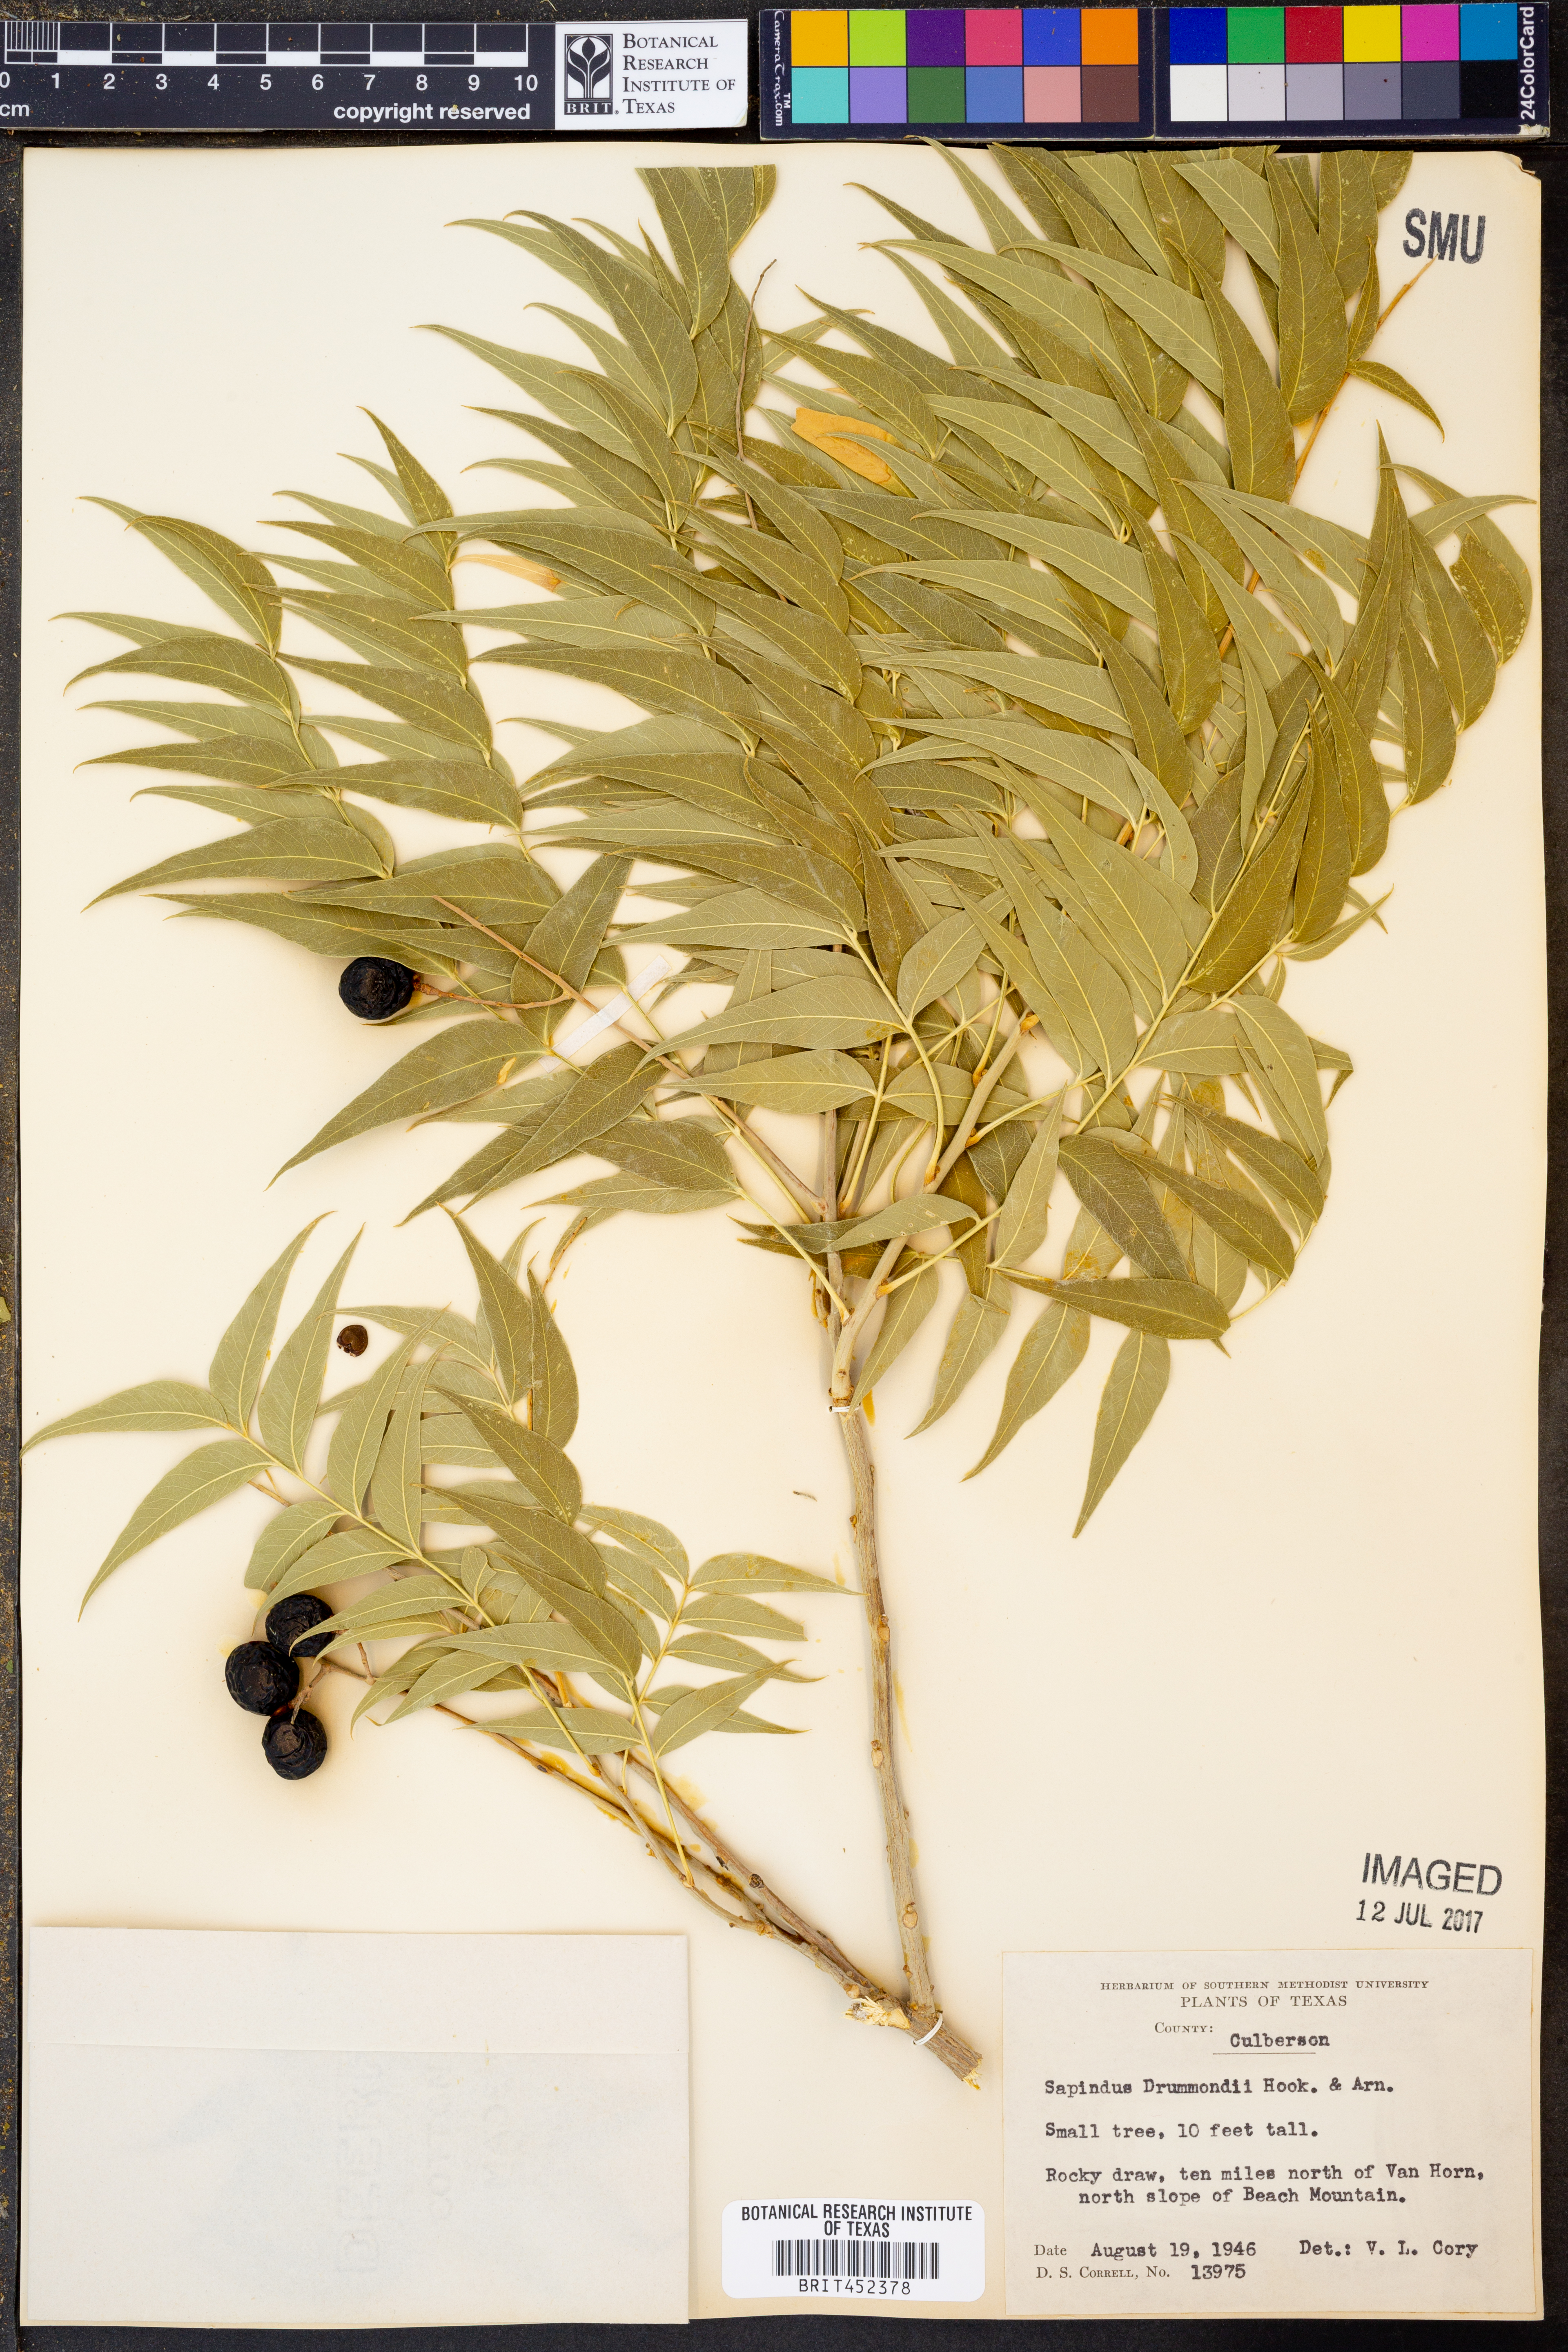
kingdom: Plantae
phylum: Tracheophyta
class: Magnoliopsida
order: Sapindales
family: Sapindaceae
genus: Sapindus
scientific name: Sapindus drummondii
